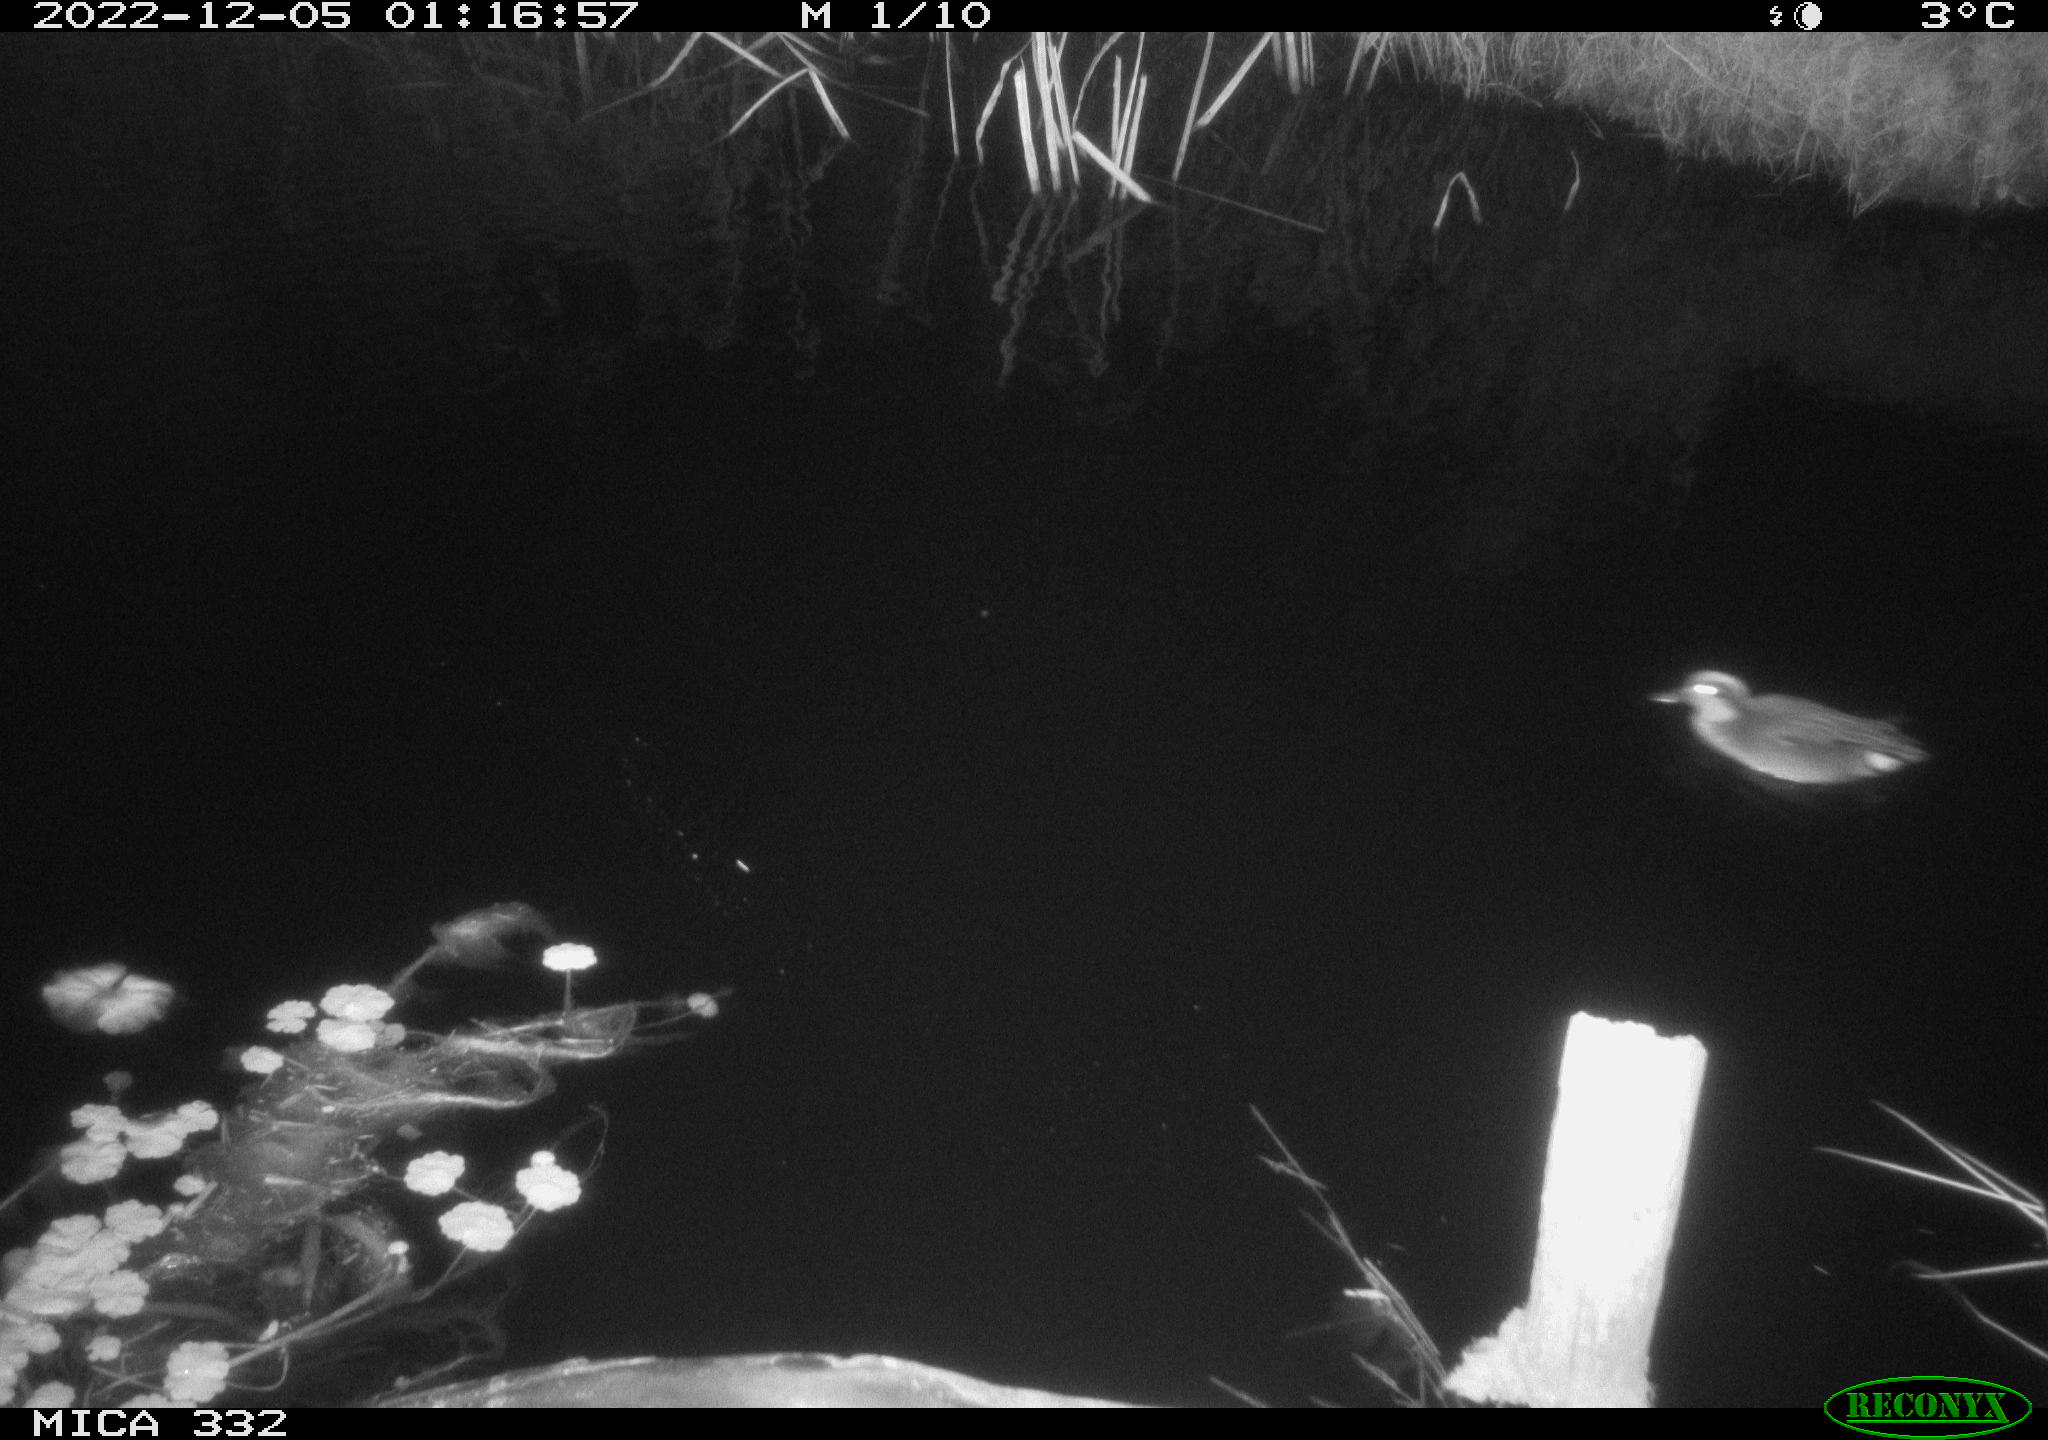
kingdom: Animalia
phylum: Chordata
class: Aves
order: Anseriformes
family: Anatidae
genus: Anas
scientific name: Anas
